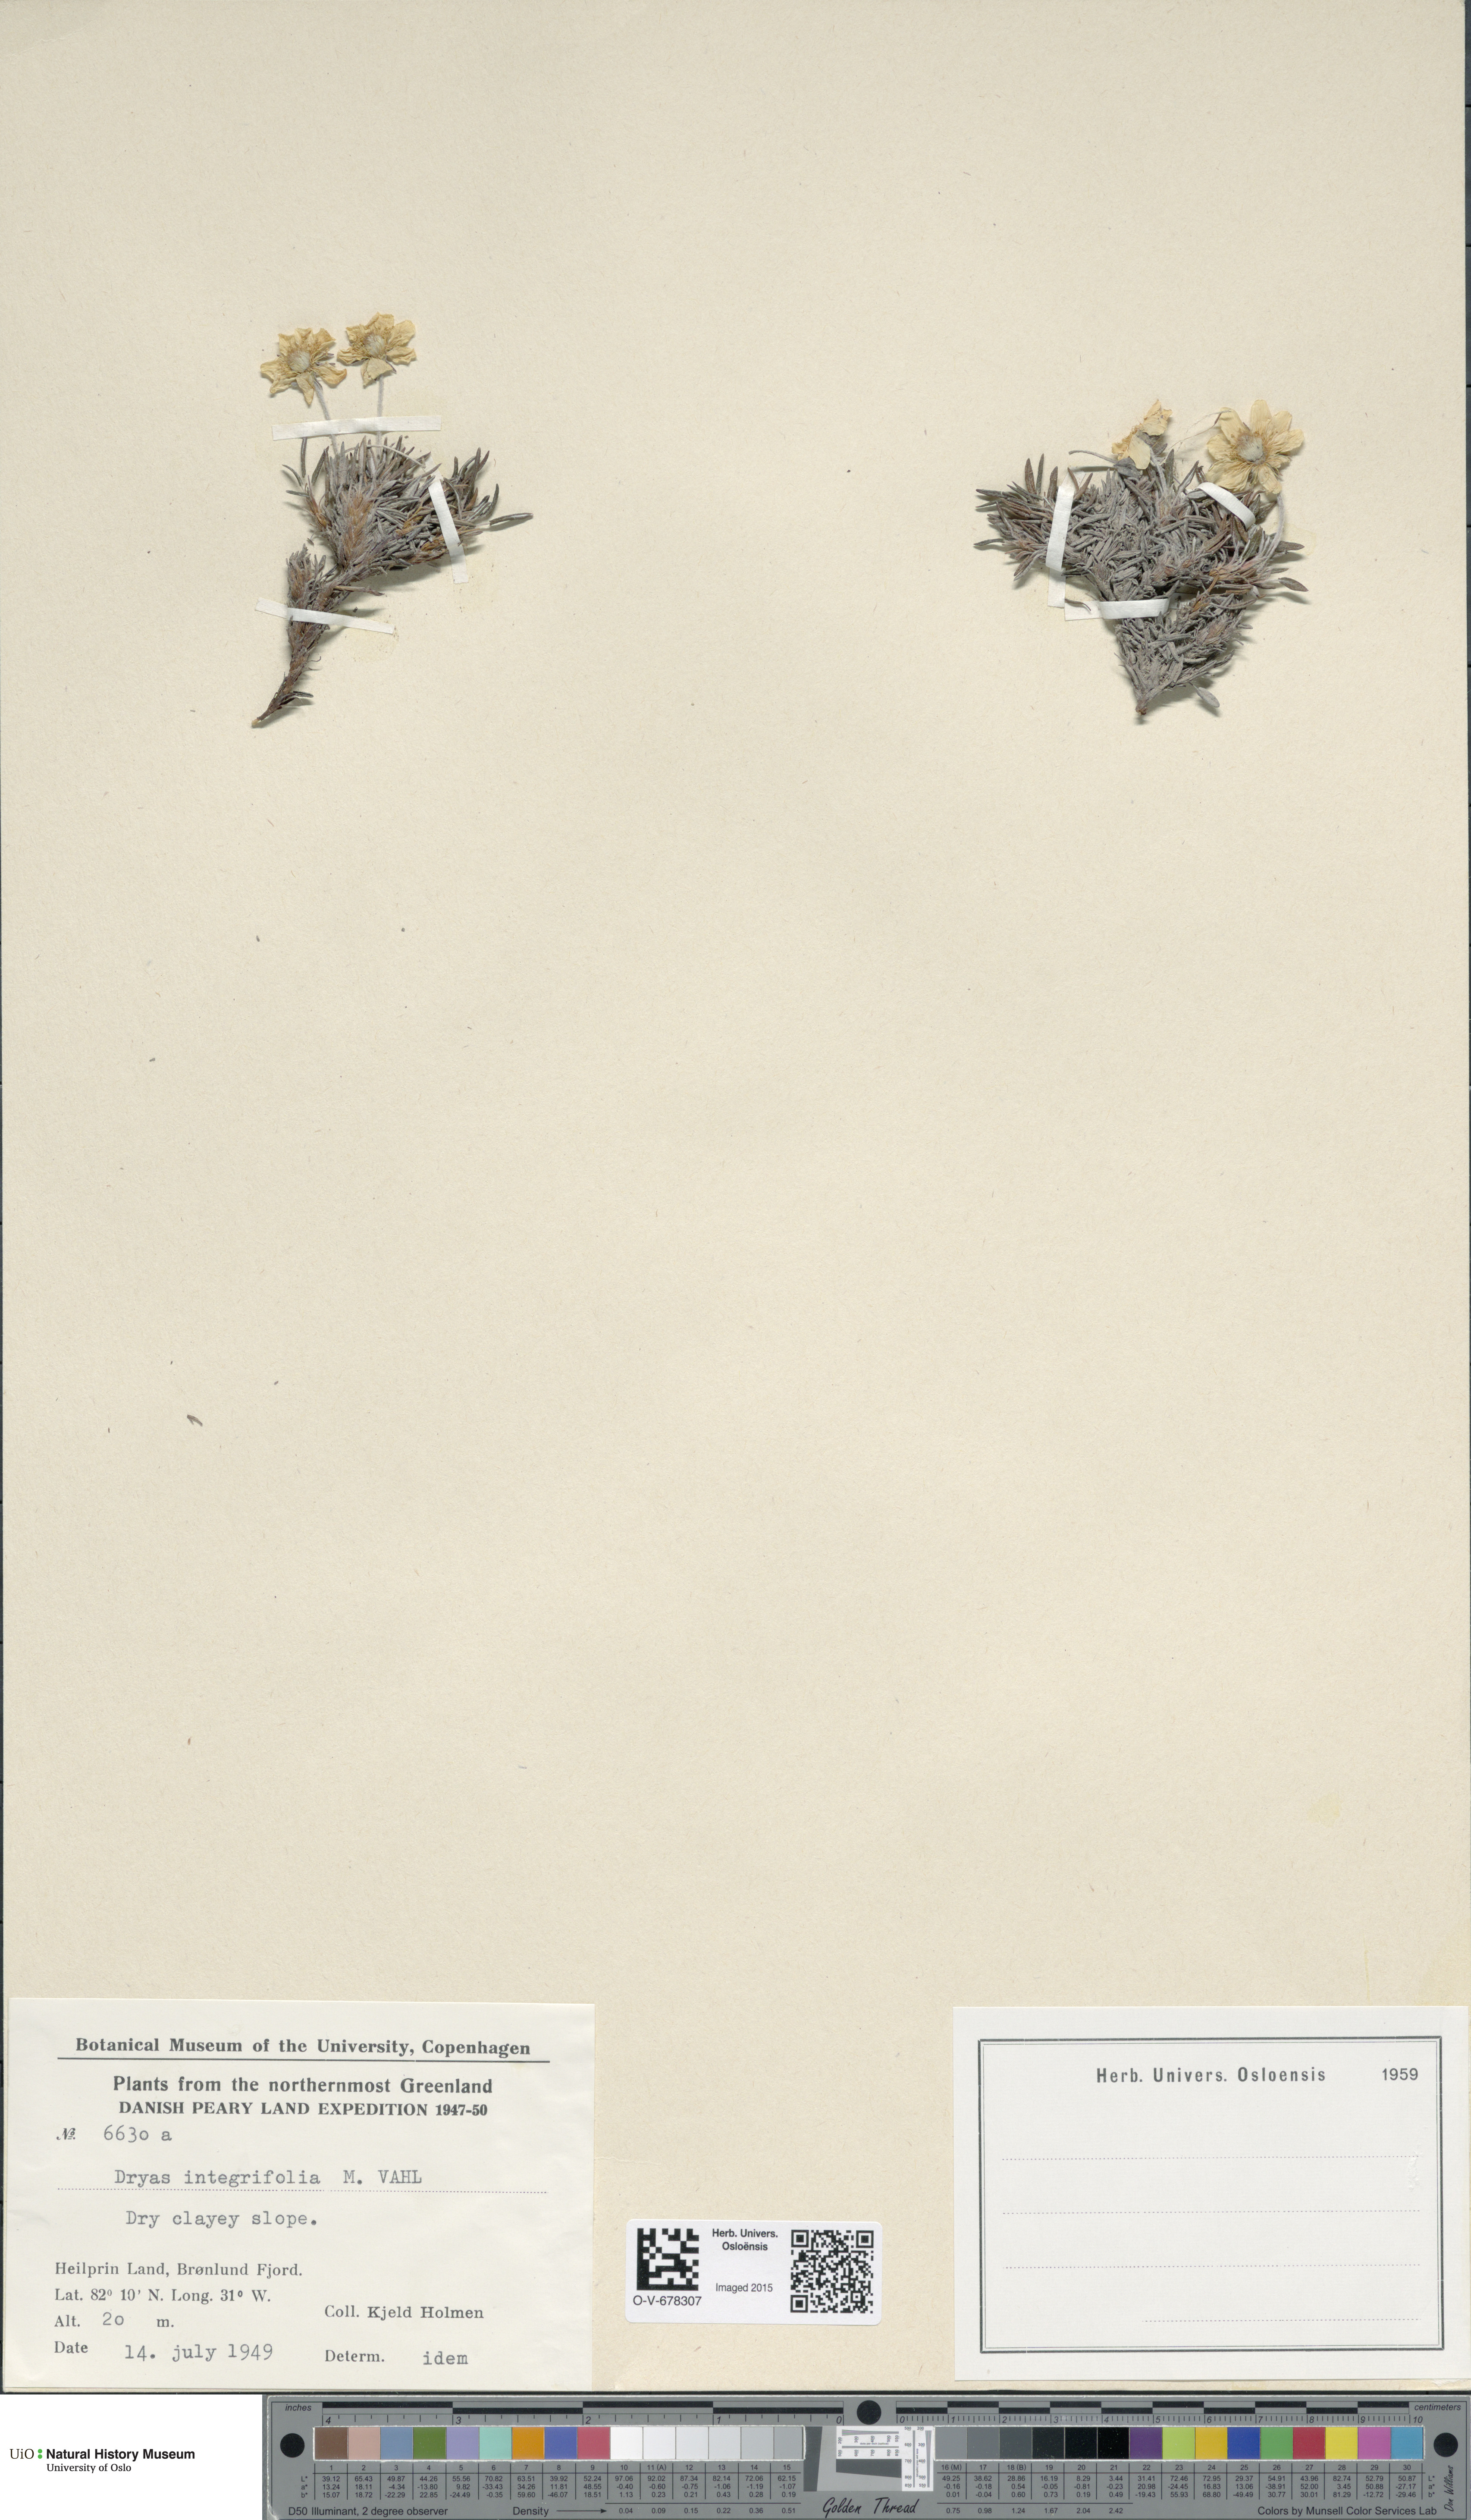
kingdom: Plantae
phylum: Tracheophyta
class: Magnoliopsida
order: Rosales
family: Rosaceae
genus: Dryas
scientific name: Dryas integrifolia
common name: Entire-leaved mountain avens
